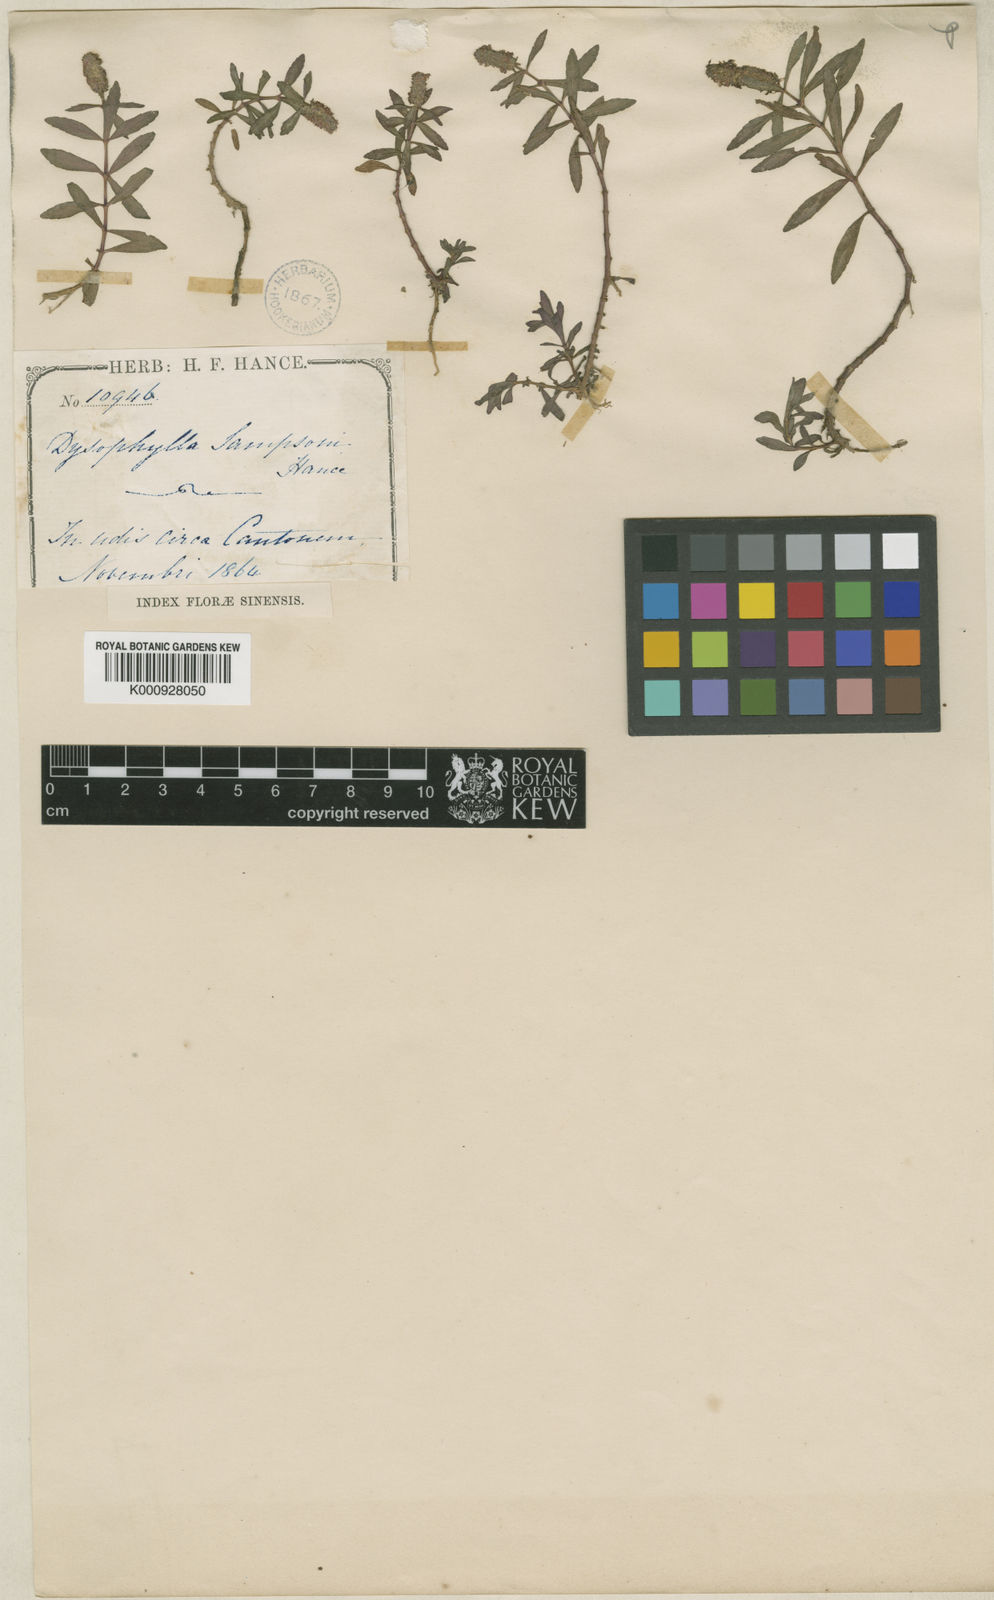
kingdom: Plantae
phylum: Tracheophyta
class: Magnoliopsida
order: Lamiales
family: Lamiaceae
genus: Pogostemon
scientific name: Pogostemon sampsonii
